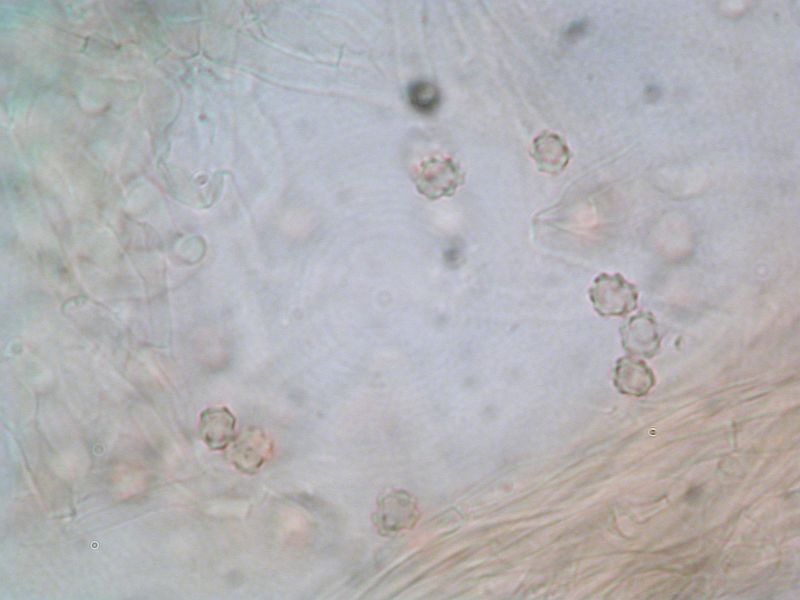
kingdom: Fungi
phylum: Basidiomycota
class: Agaricomycetes
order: Thelephorales
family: Bankeraceae
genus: Hydnellum
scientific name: Hydnellum lepidum
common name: skrænt-korkpigsvamp
